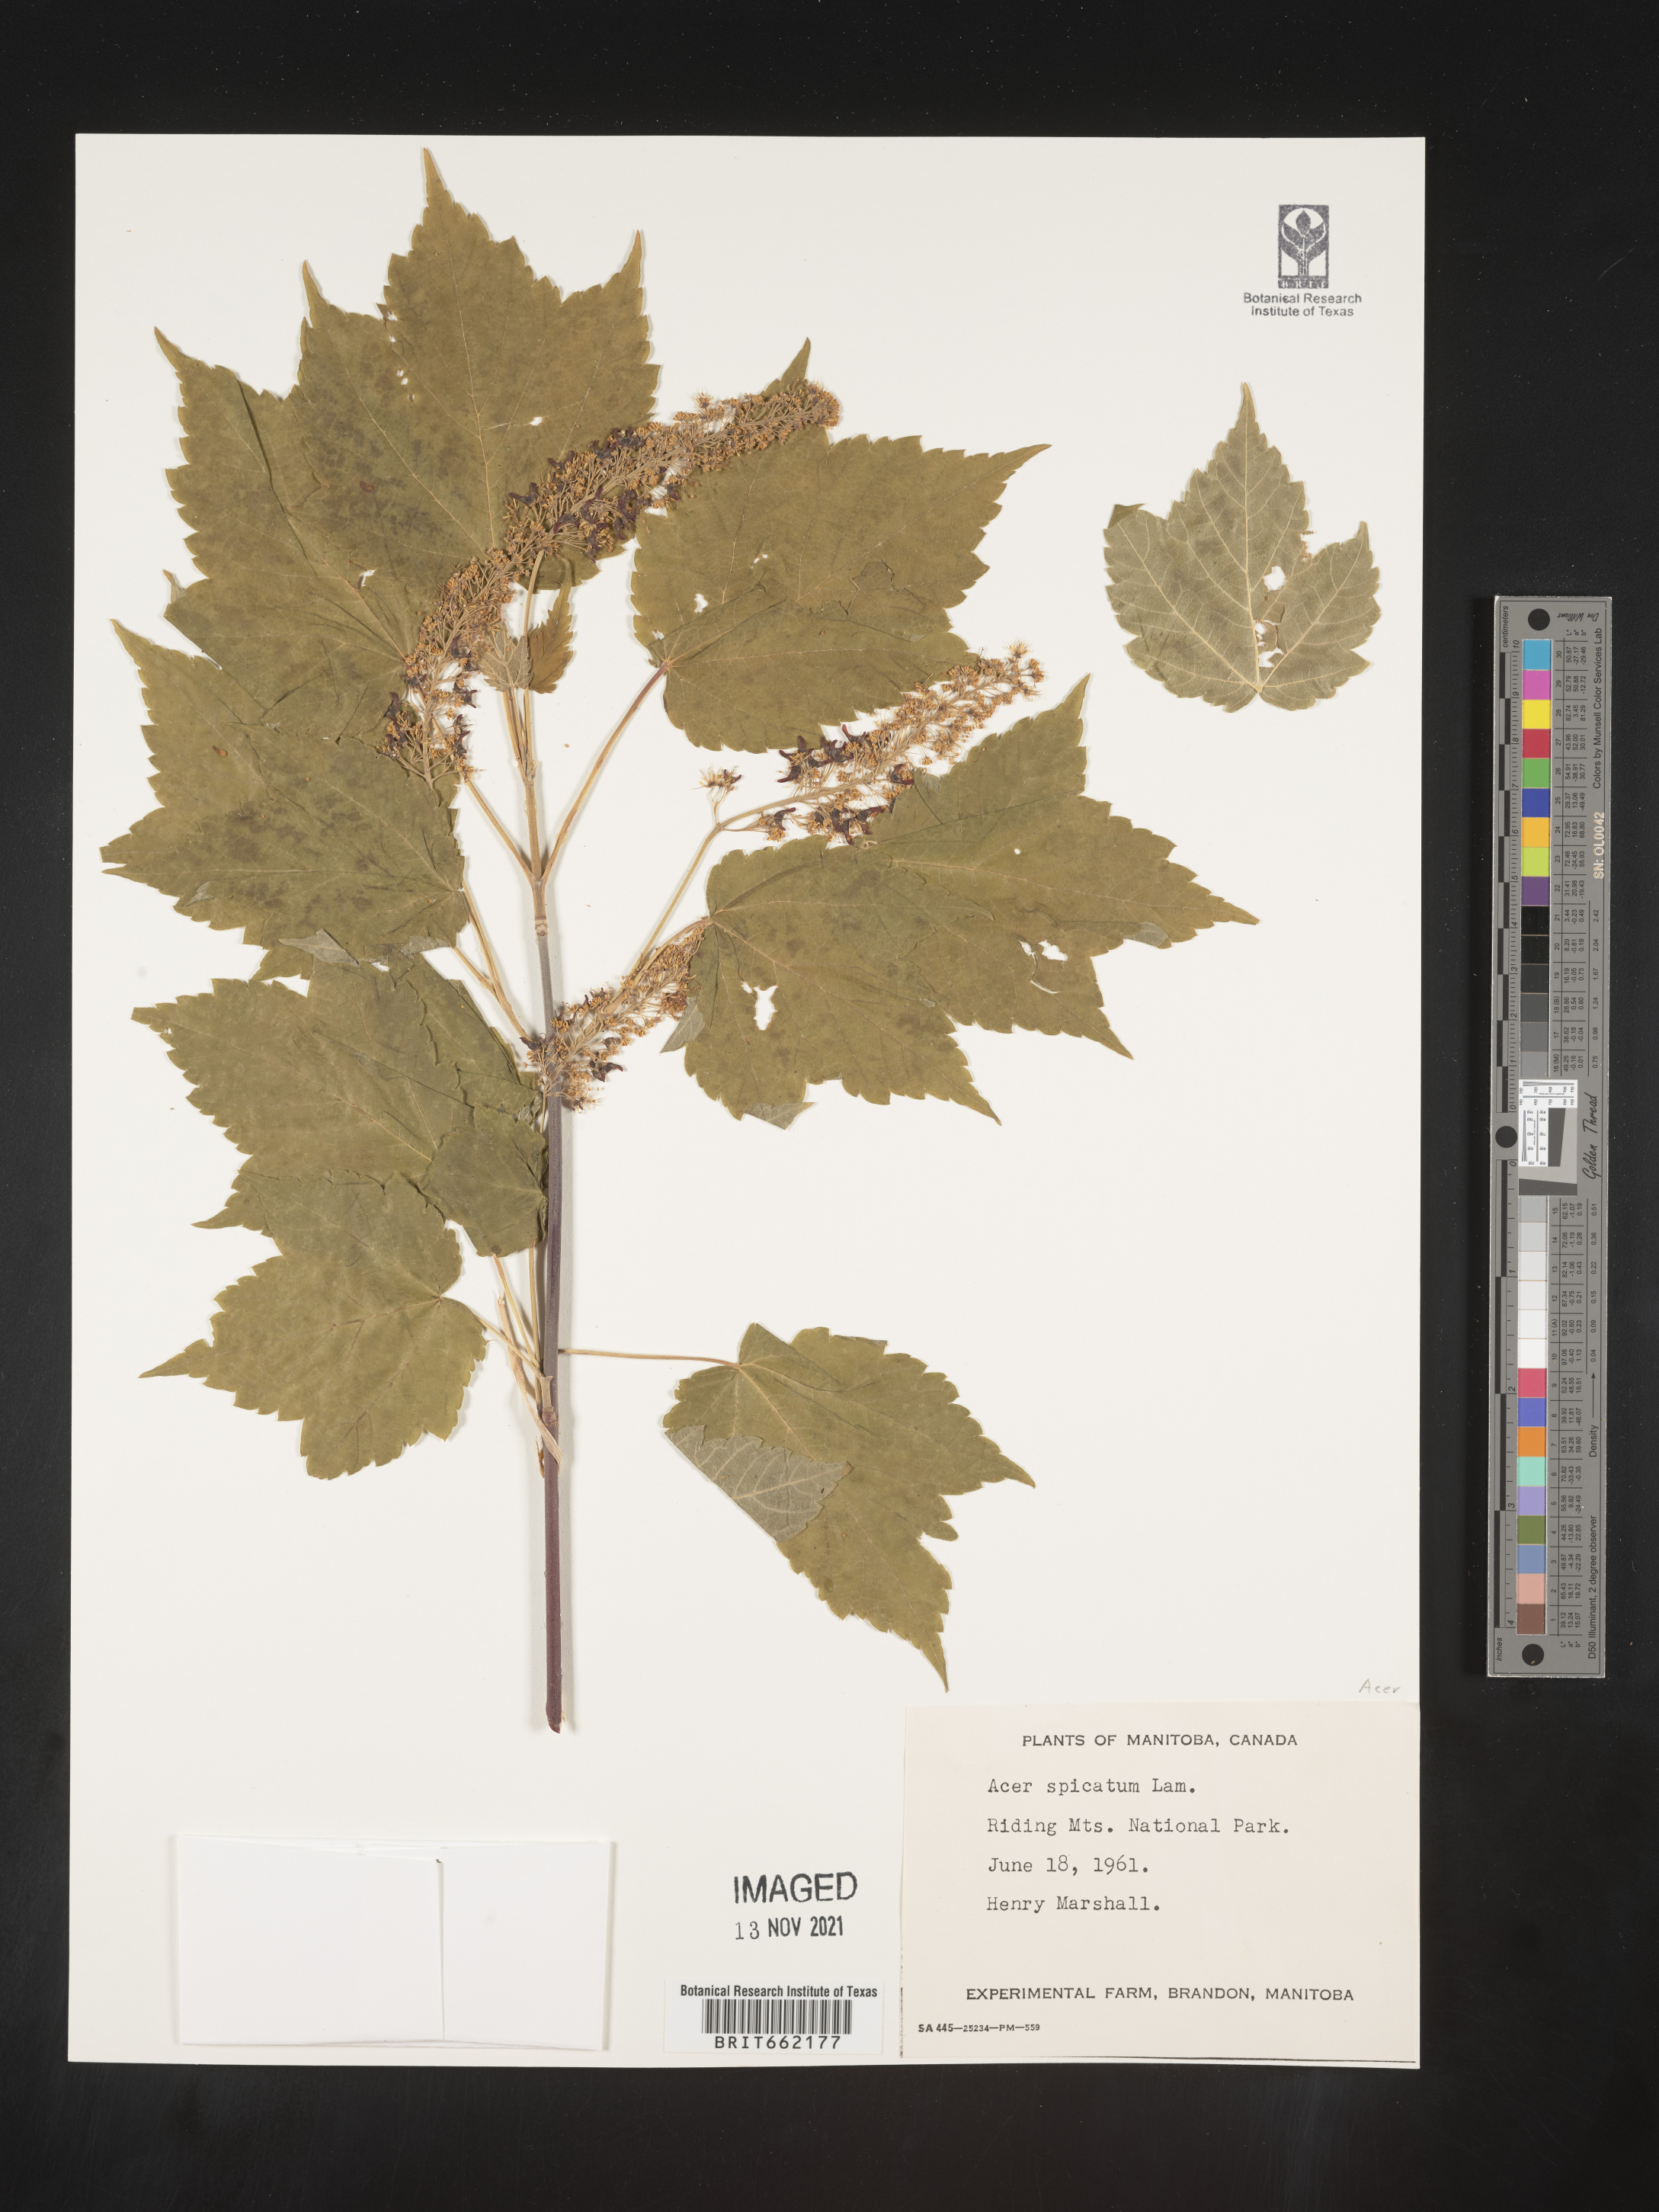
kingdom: Plantae
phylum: Tracheophyta
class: Magnoliopsida
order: Sapindales
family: Sapindaceae
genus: Acer
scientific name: Acer spicatum
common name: Mountain maple
